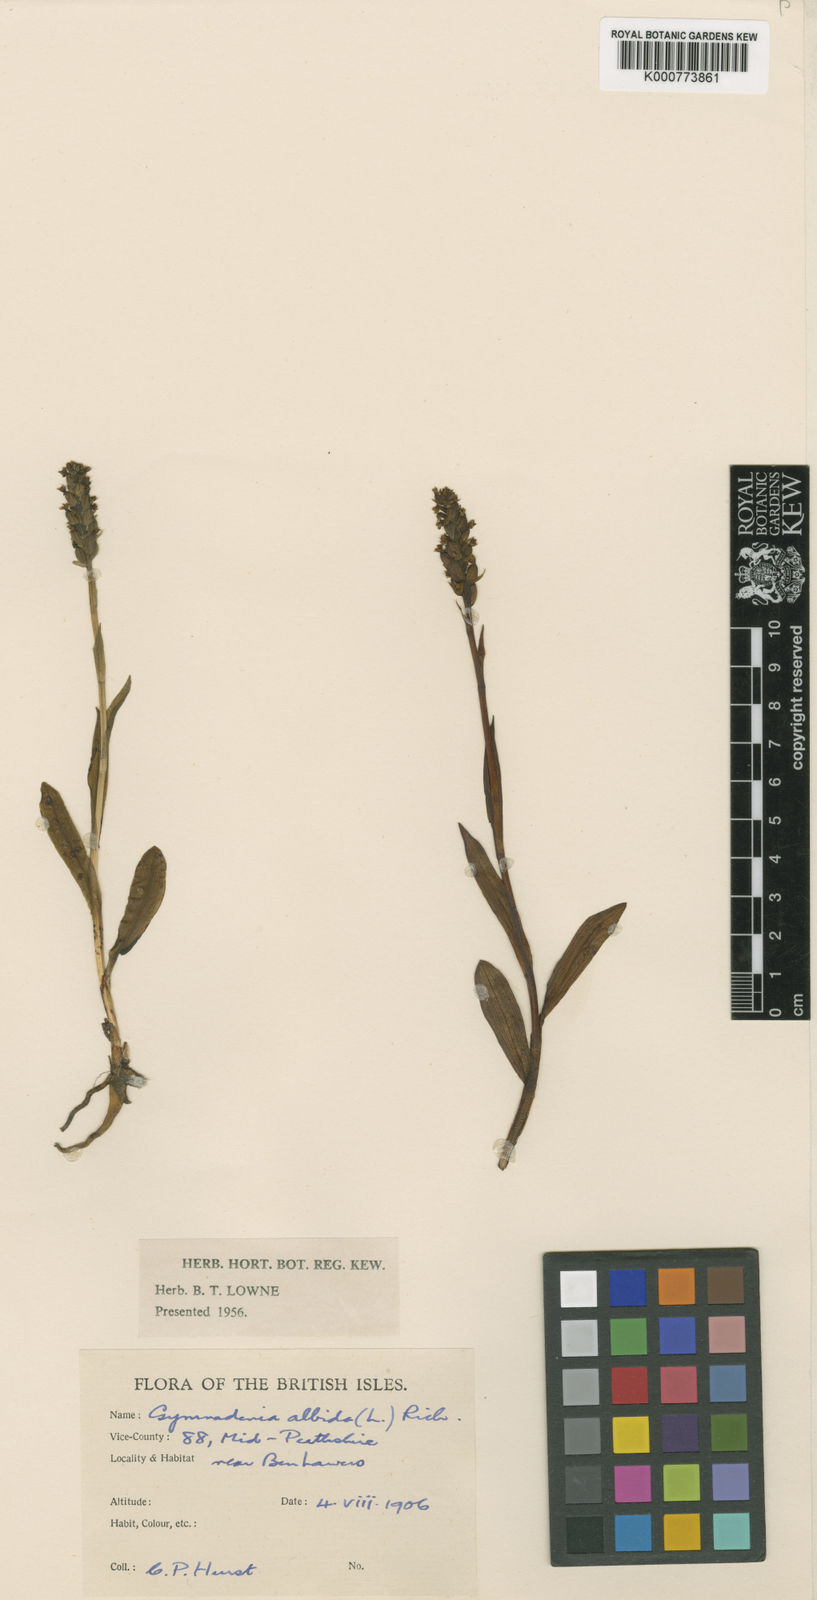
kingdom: Plantae
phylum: Tracheophyta
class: Liliopsida
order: Asparagales
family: Orchidaceae
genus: Pseudorchis
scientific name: Pseudorchis
